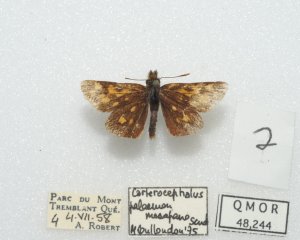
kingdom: Animalia
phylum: Arthropoda
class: Insecta
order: Lepidoptera
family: Hesperiidae
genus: Carterocephalus
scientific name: Carterocephalus palaemon
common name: Chequered Skipper
